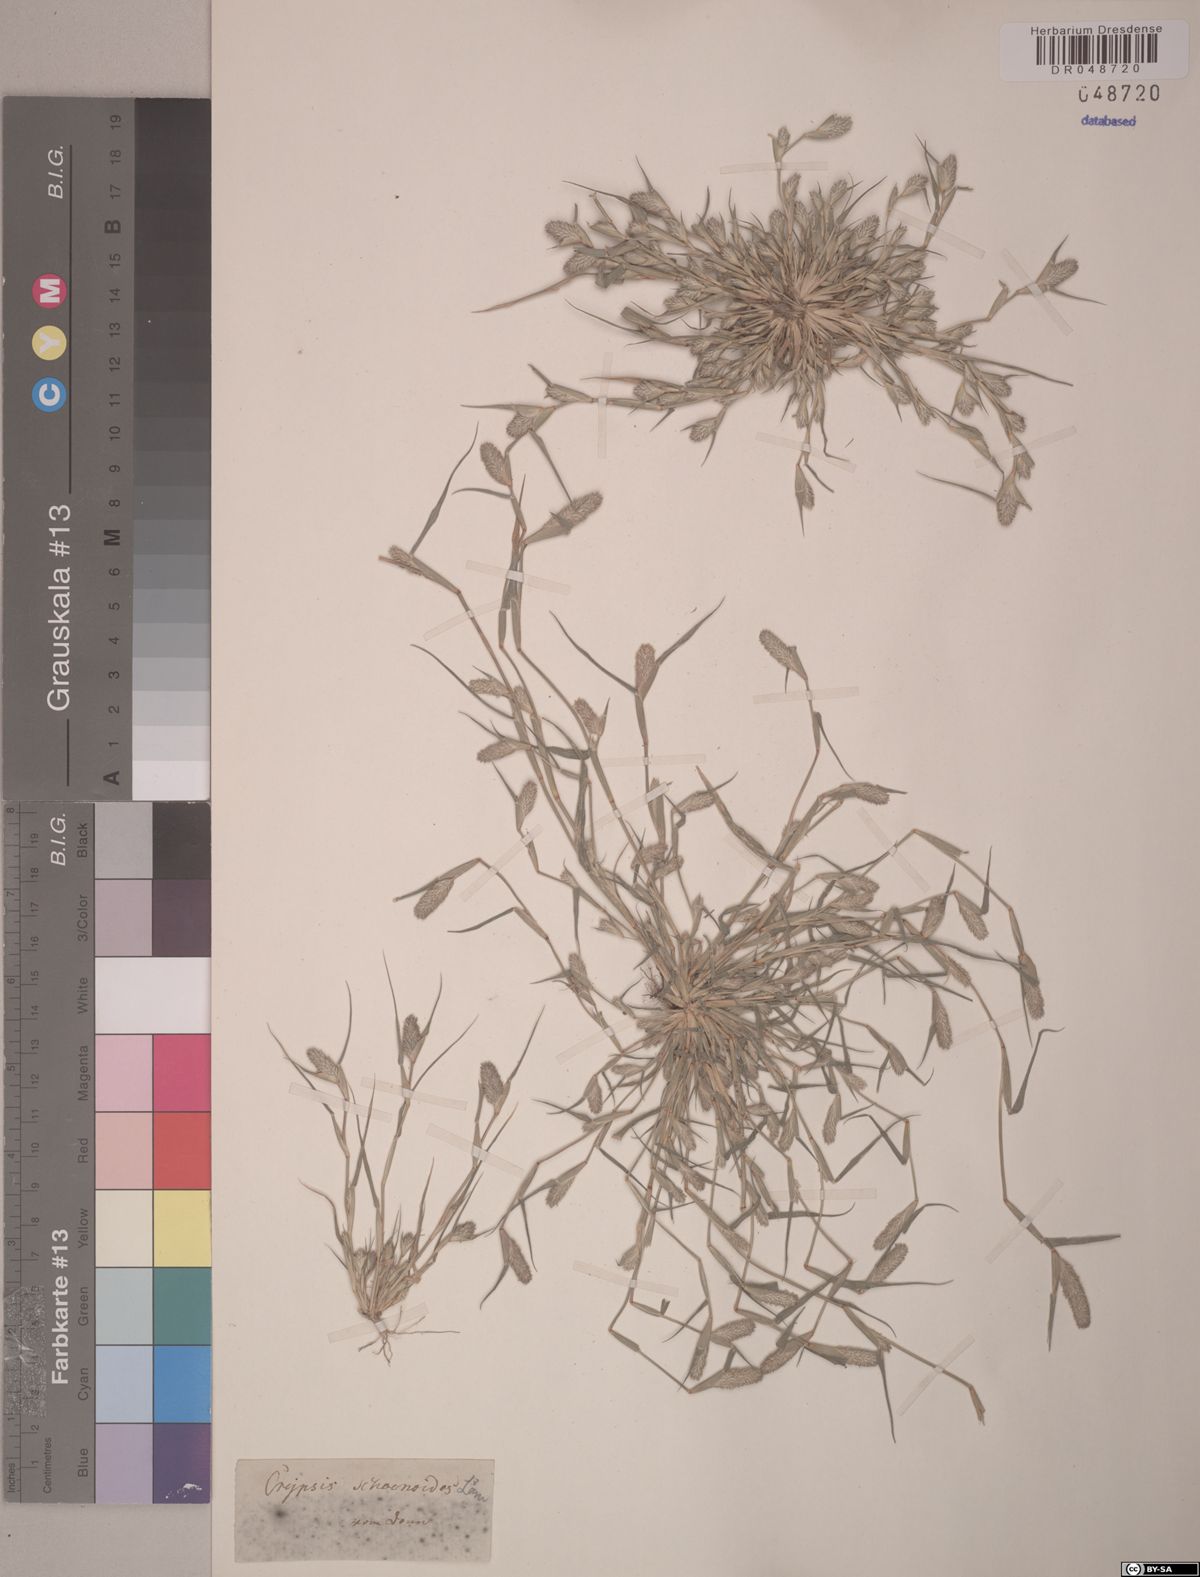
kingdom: Plantae
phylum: Tracheophyta
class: Liliopsida
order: Poales
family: Poaceae
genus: Sporobolus
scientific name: Sporobolus schoenoides
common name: Rush-like timothy
